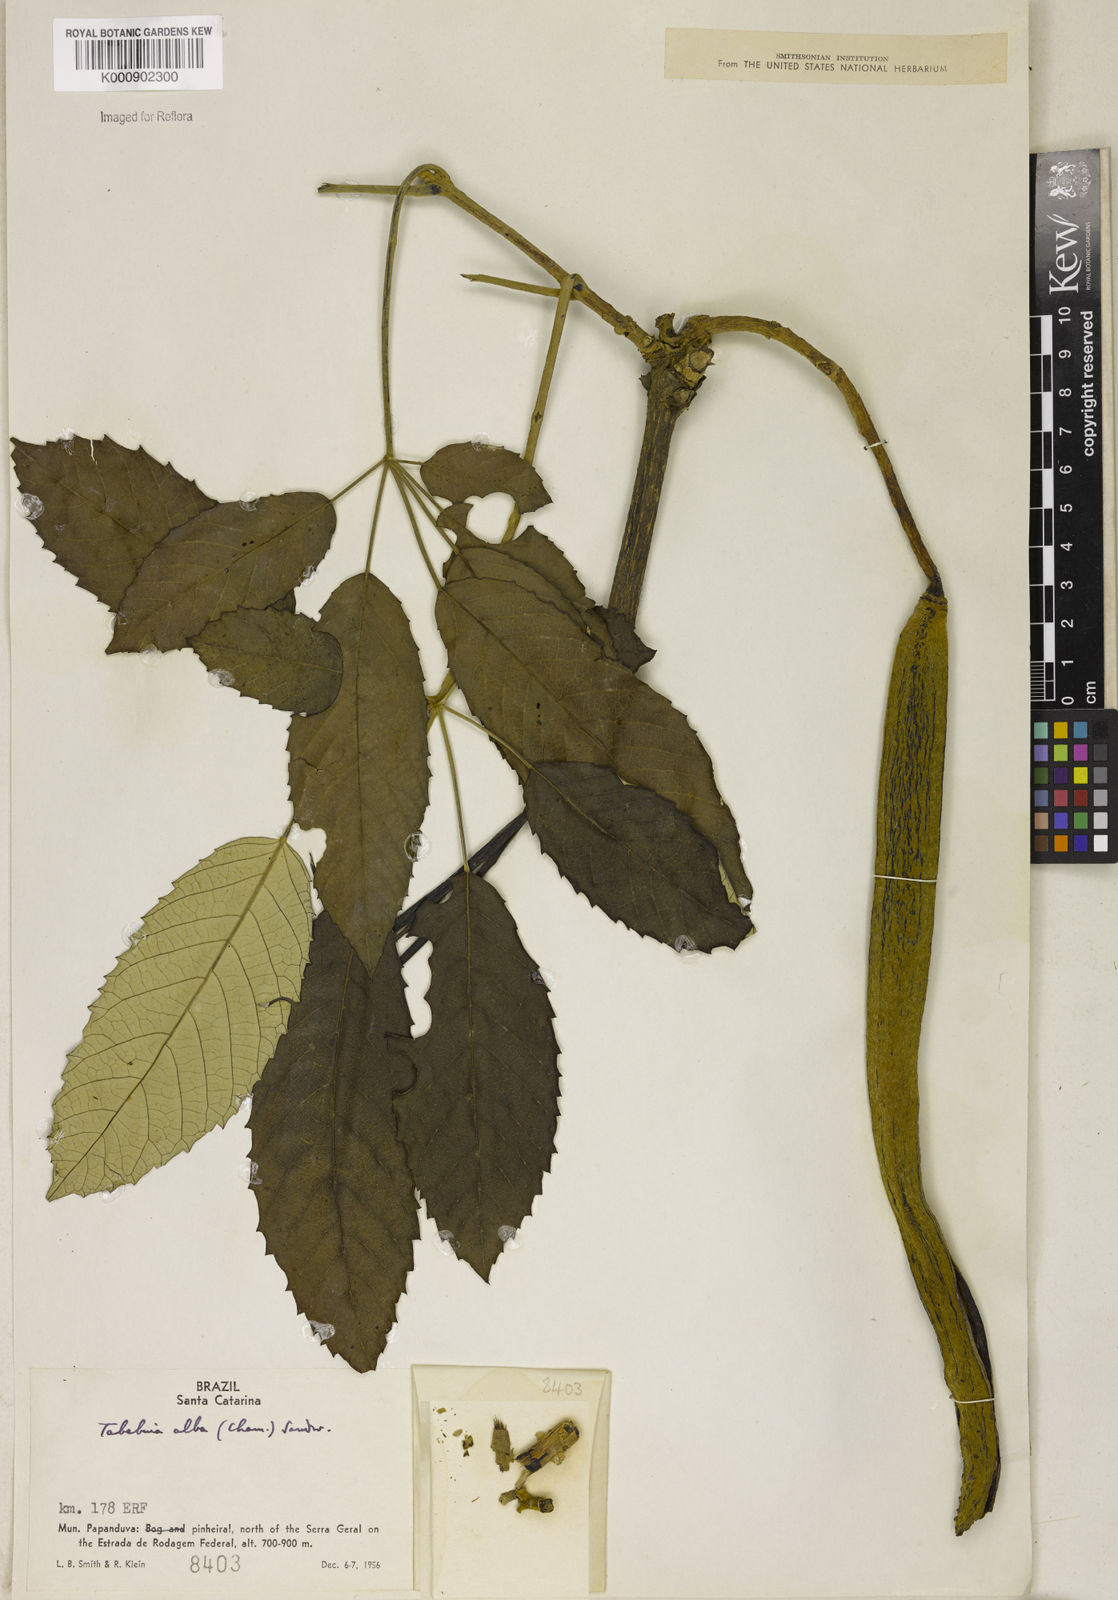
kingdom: Plantae
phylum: Tracheophyta
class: Magnoliopsida
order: Lamiales
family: Bignoniaceae
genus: Handroanthus
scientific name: Handroanthus albus
